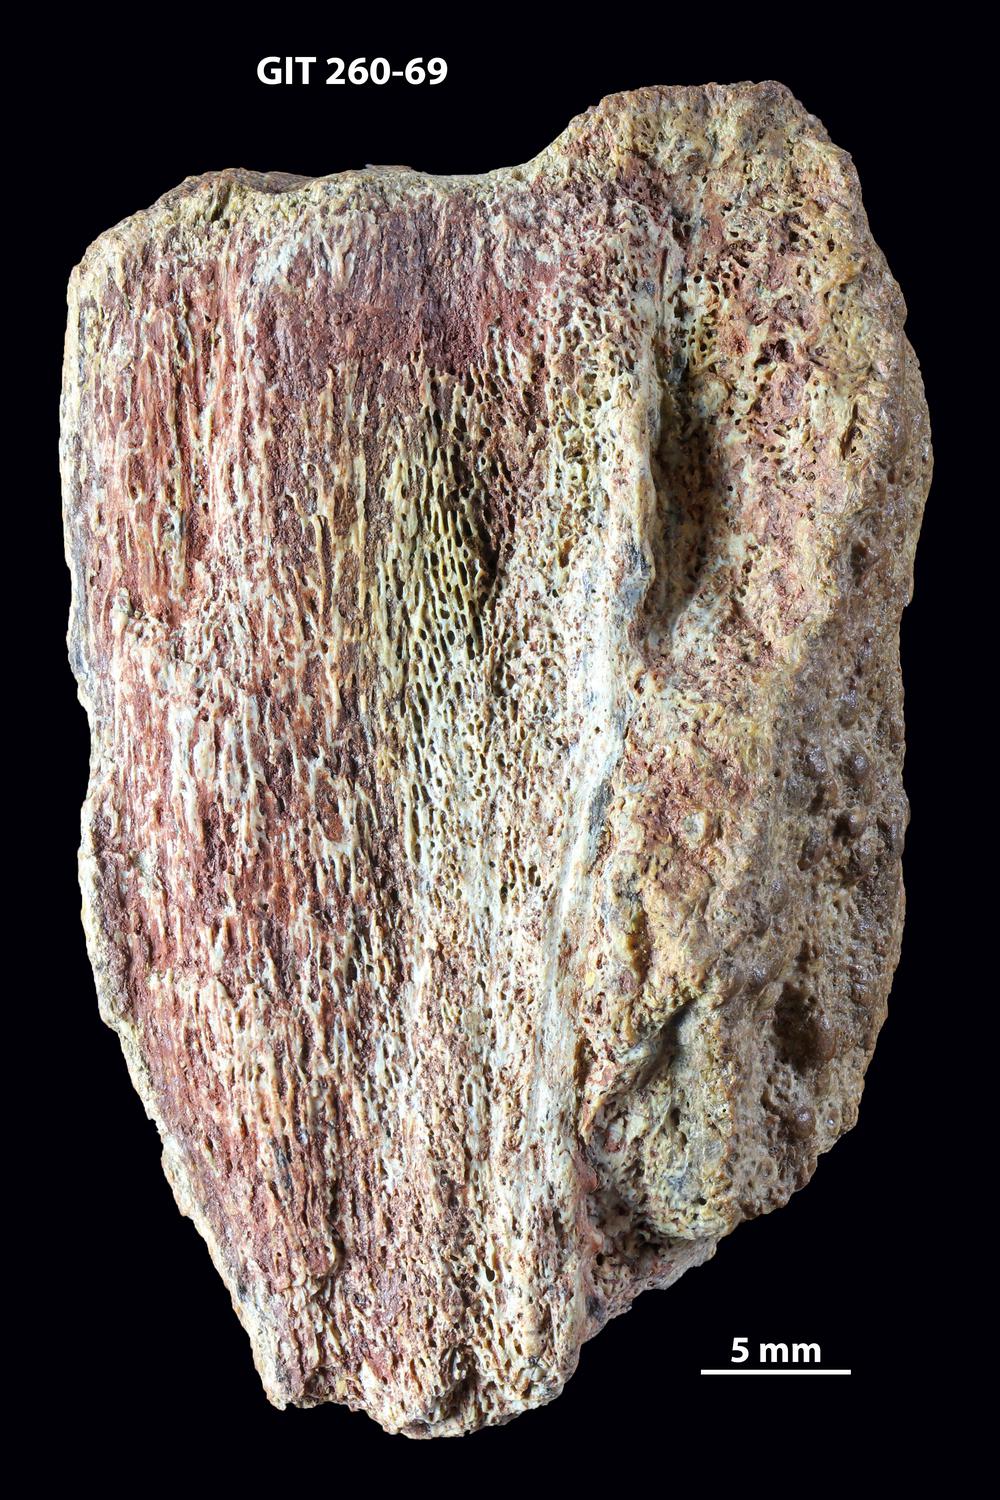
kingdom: Animalia
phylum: Chordata
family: Homostiidae
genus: Homostius
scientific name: Homostius
